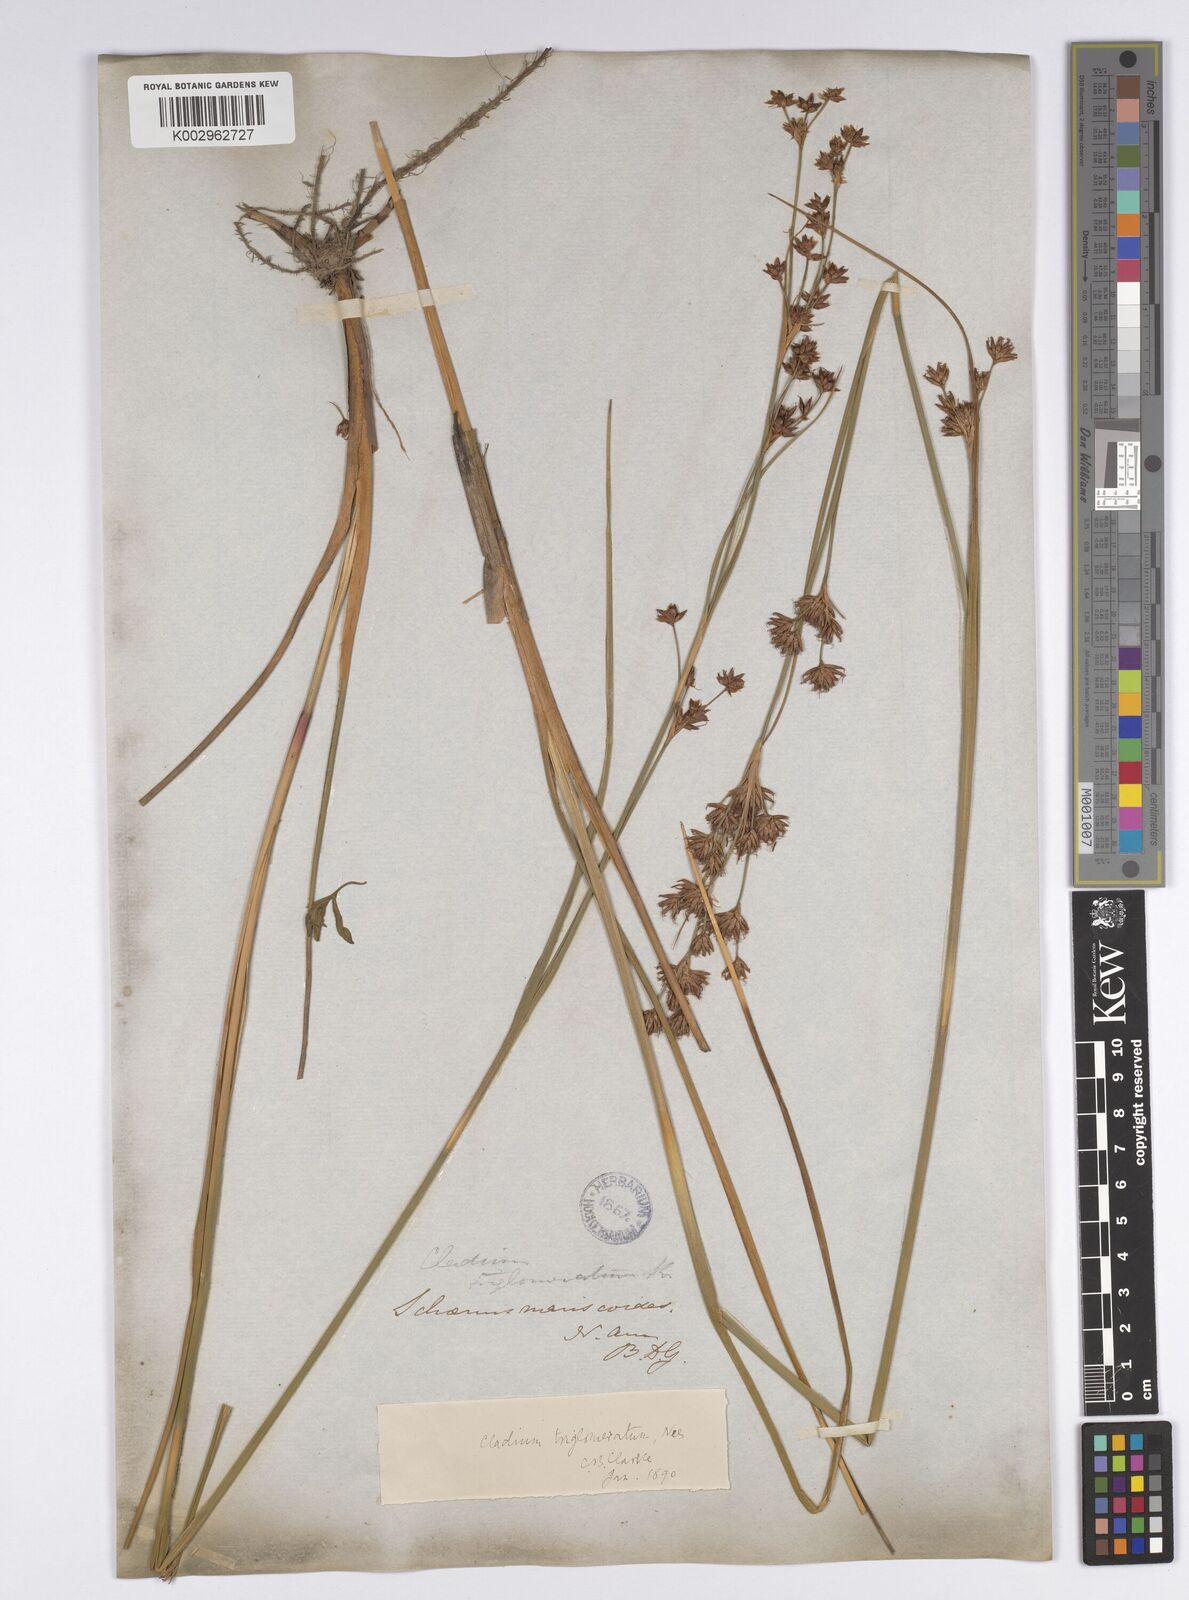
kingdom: Plantae
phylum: Tracheophyta
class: Liliopsida
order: Poales
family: Cyperaceae
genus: Cladium
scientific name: Cladium mariscoides
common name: Smooth sawgrass
